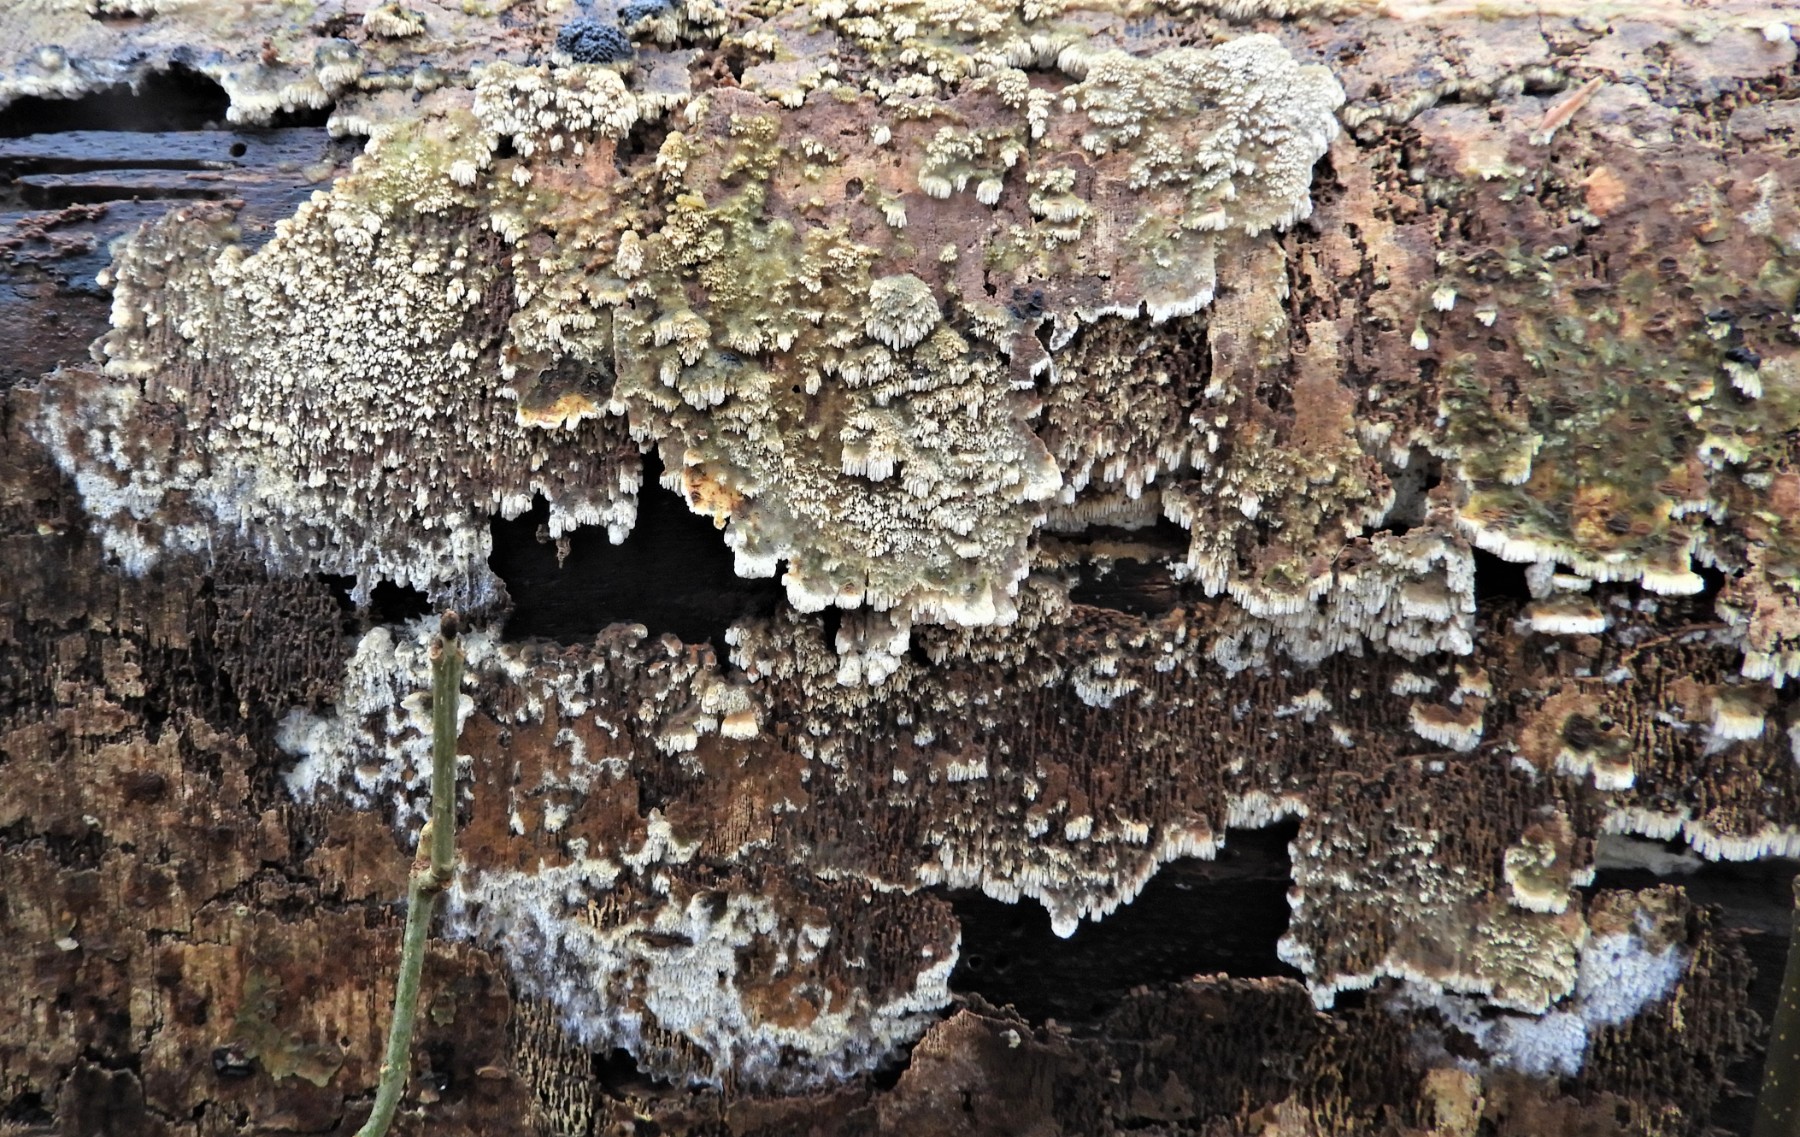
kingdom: Fungi
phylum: Basidiomycota
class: Agaricomycetes
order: Hymenochaetales
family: Schizoporaceae
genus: Schizopora
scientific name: Schizopora paradoxa
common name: hvid tandsvamp
